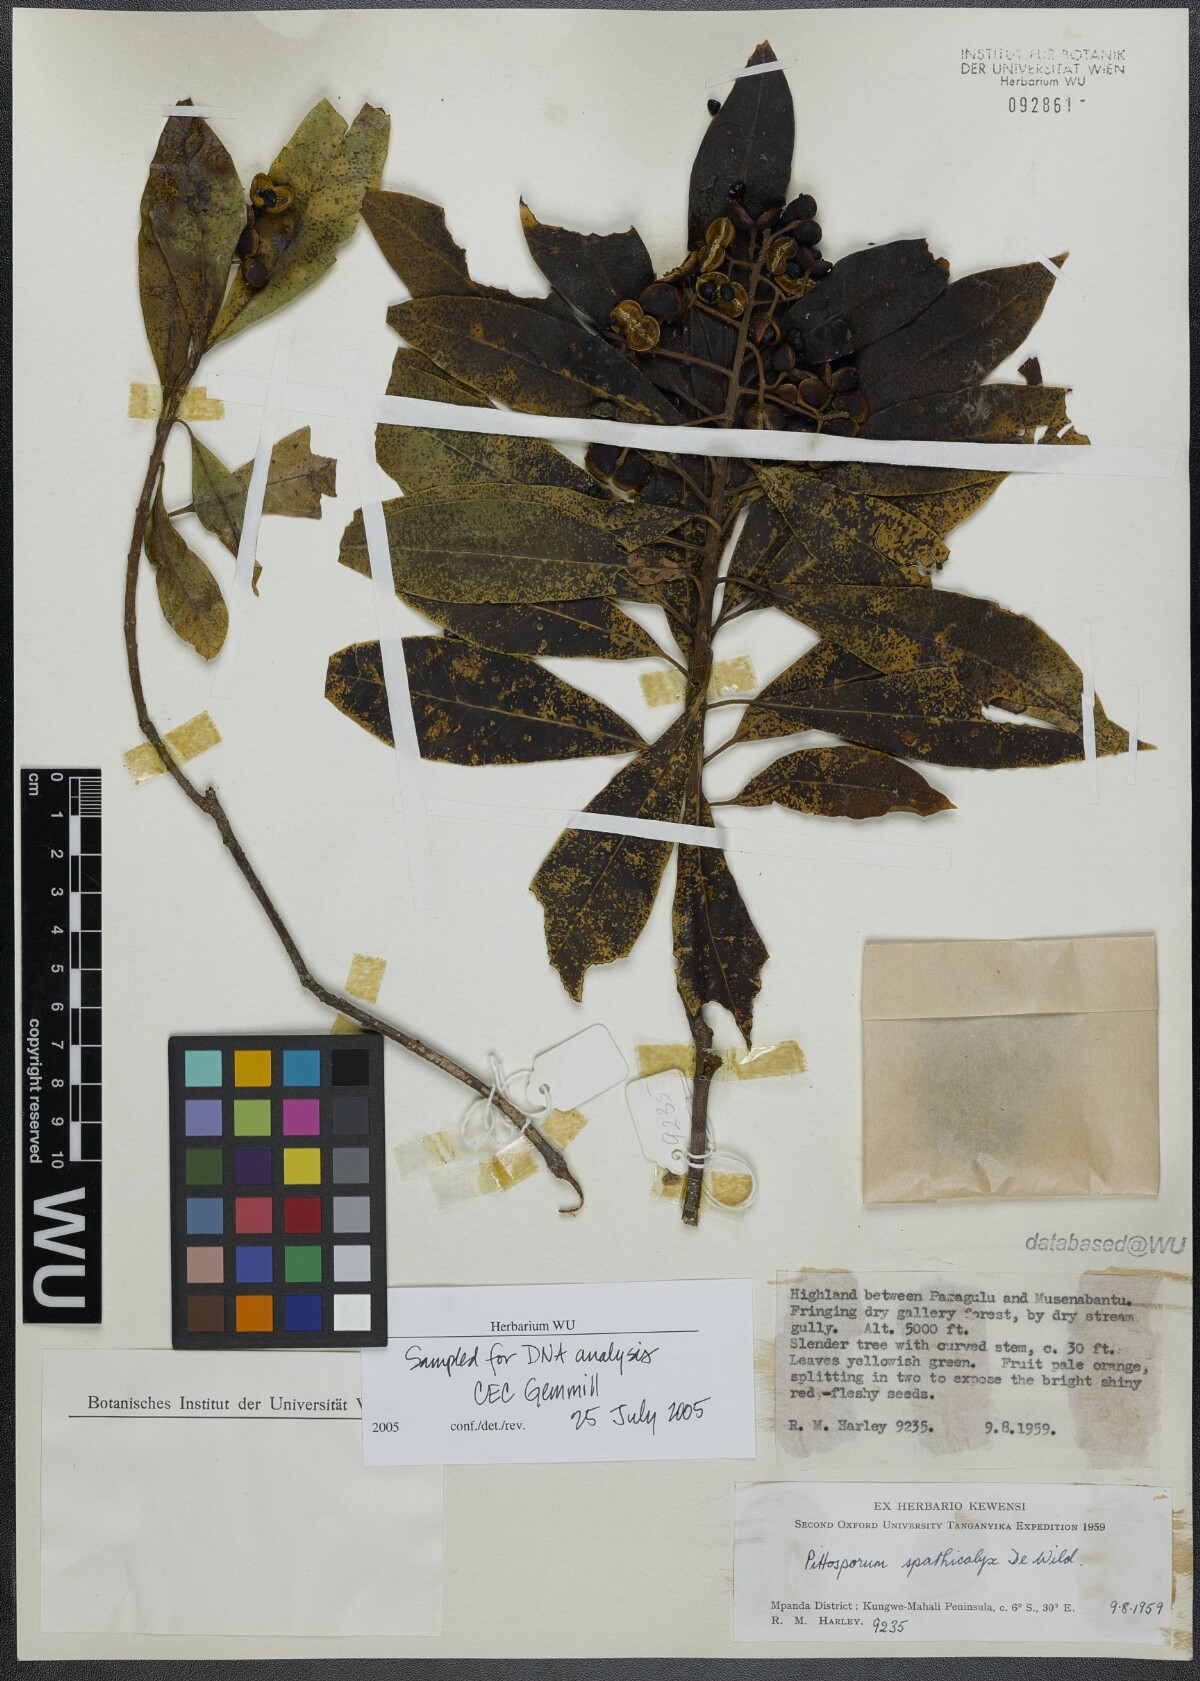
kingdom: Plantae
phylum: Tracheophyta
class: Magnoliopsida
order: Apiales
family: Pittosporaceae
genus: Pittosporum
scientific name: Pittosporum viridiflorum
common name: Cape cheesewood
